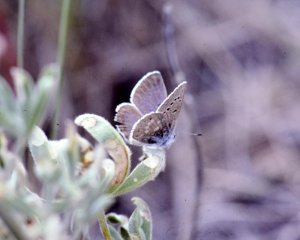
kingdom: Animalia
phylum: Arthropoda
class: Insecta
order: Lepidoptera
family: Lycaenidae
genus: Icaricia
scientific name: Icaricia icarioides
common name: Boisduval's Blue
